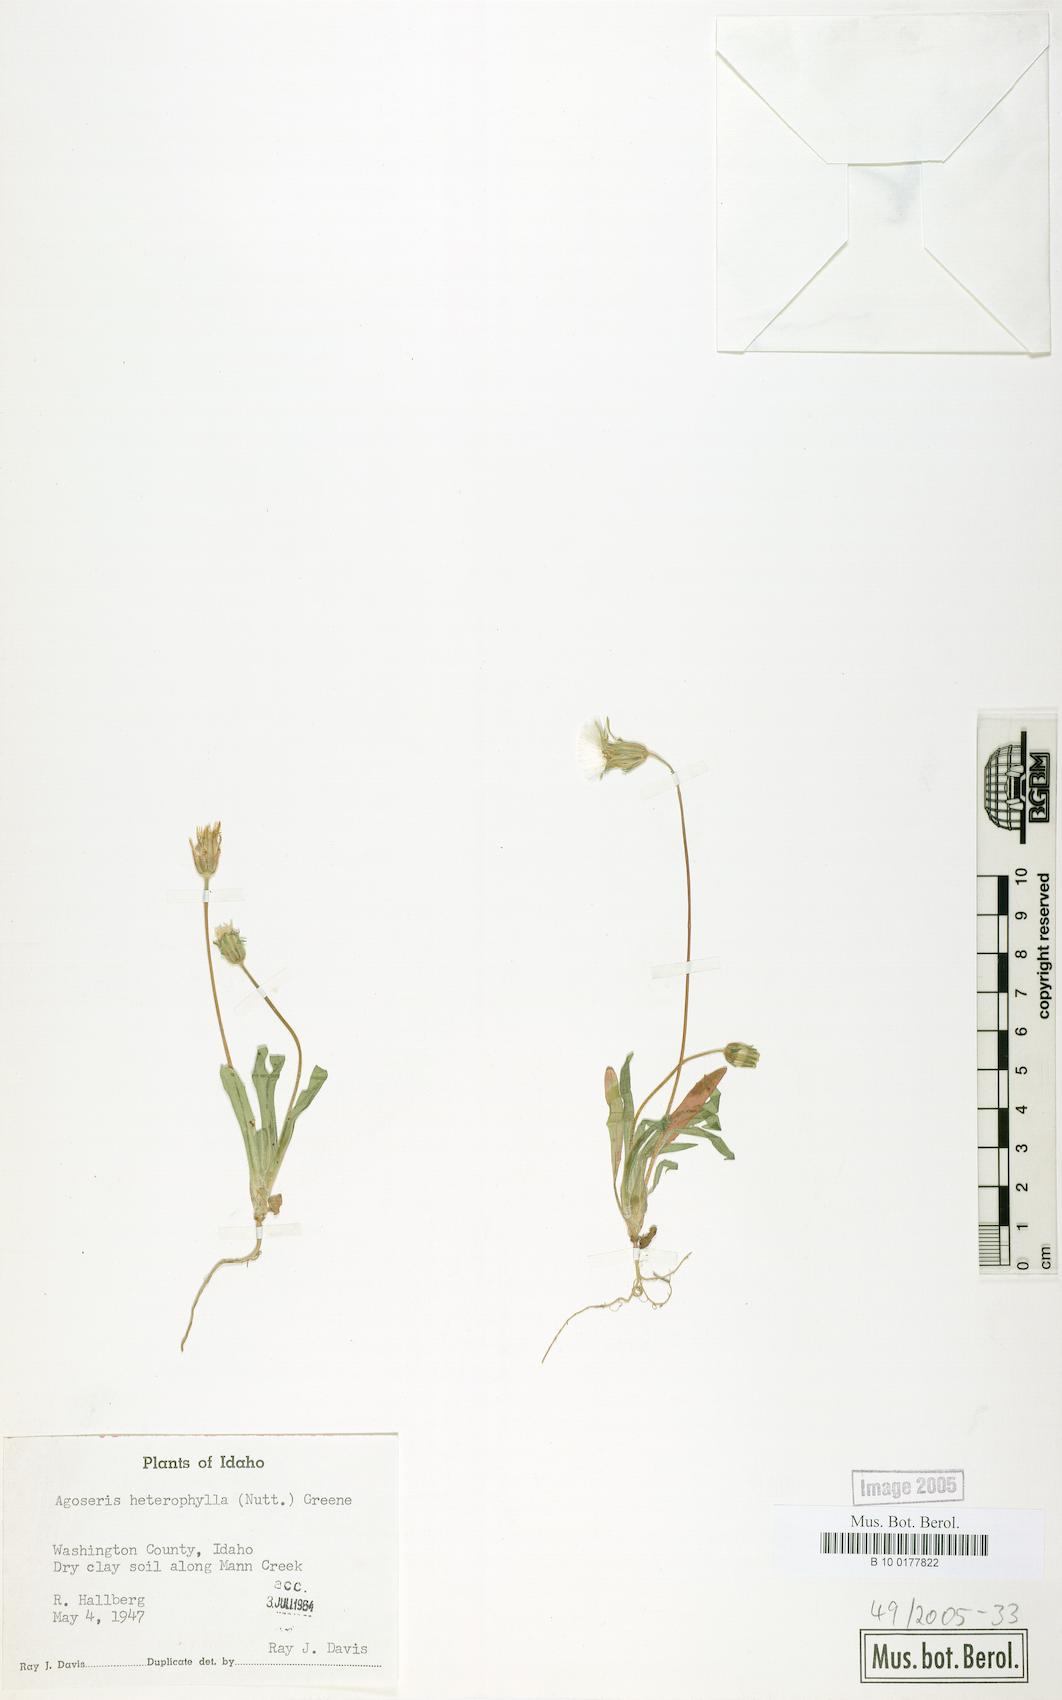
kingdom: Plantae
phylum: Tracheophyta
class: Magnoliopsida
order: Asterales
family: Asteraceae
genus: Agoseris
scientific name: Agoseris heterophylla
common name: Annual agoseris
